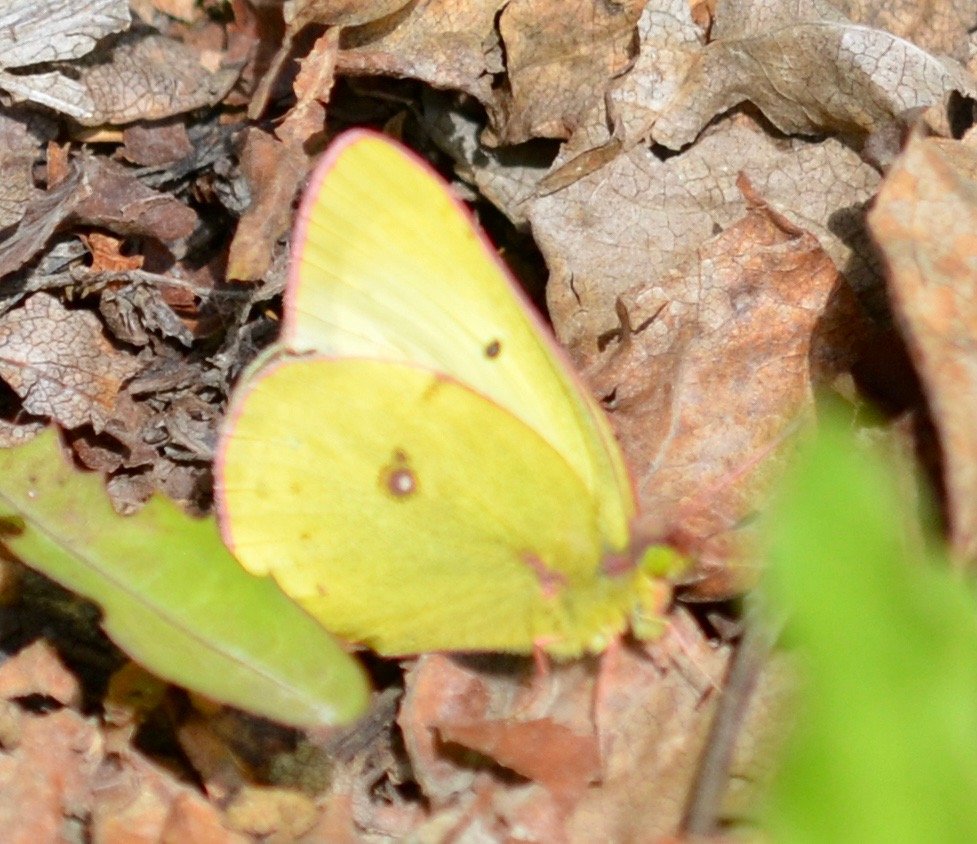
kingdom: Animalia
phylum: Arthropoda
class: Insecta
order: Lepidoptera
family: Pieridae
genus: Colias
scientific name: Colias philodice
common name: Clouded Sulphur
